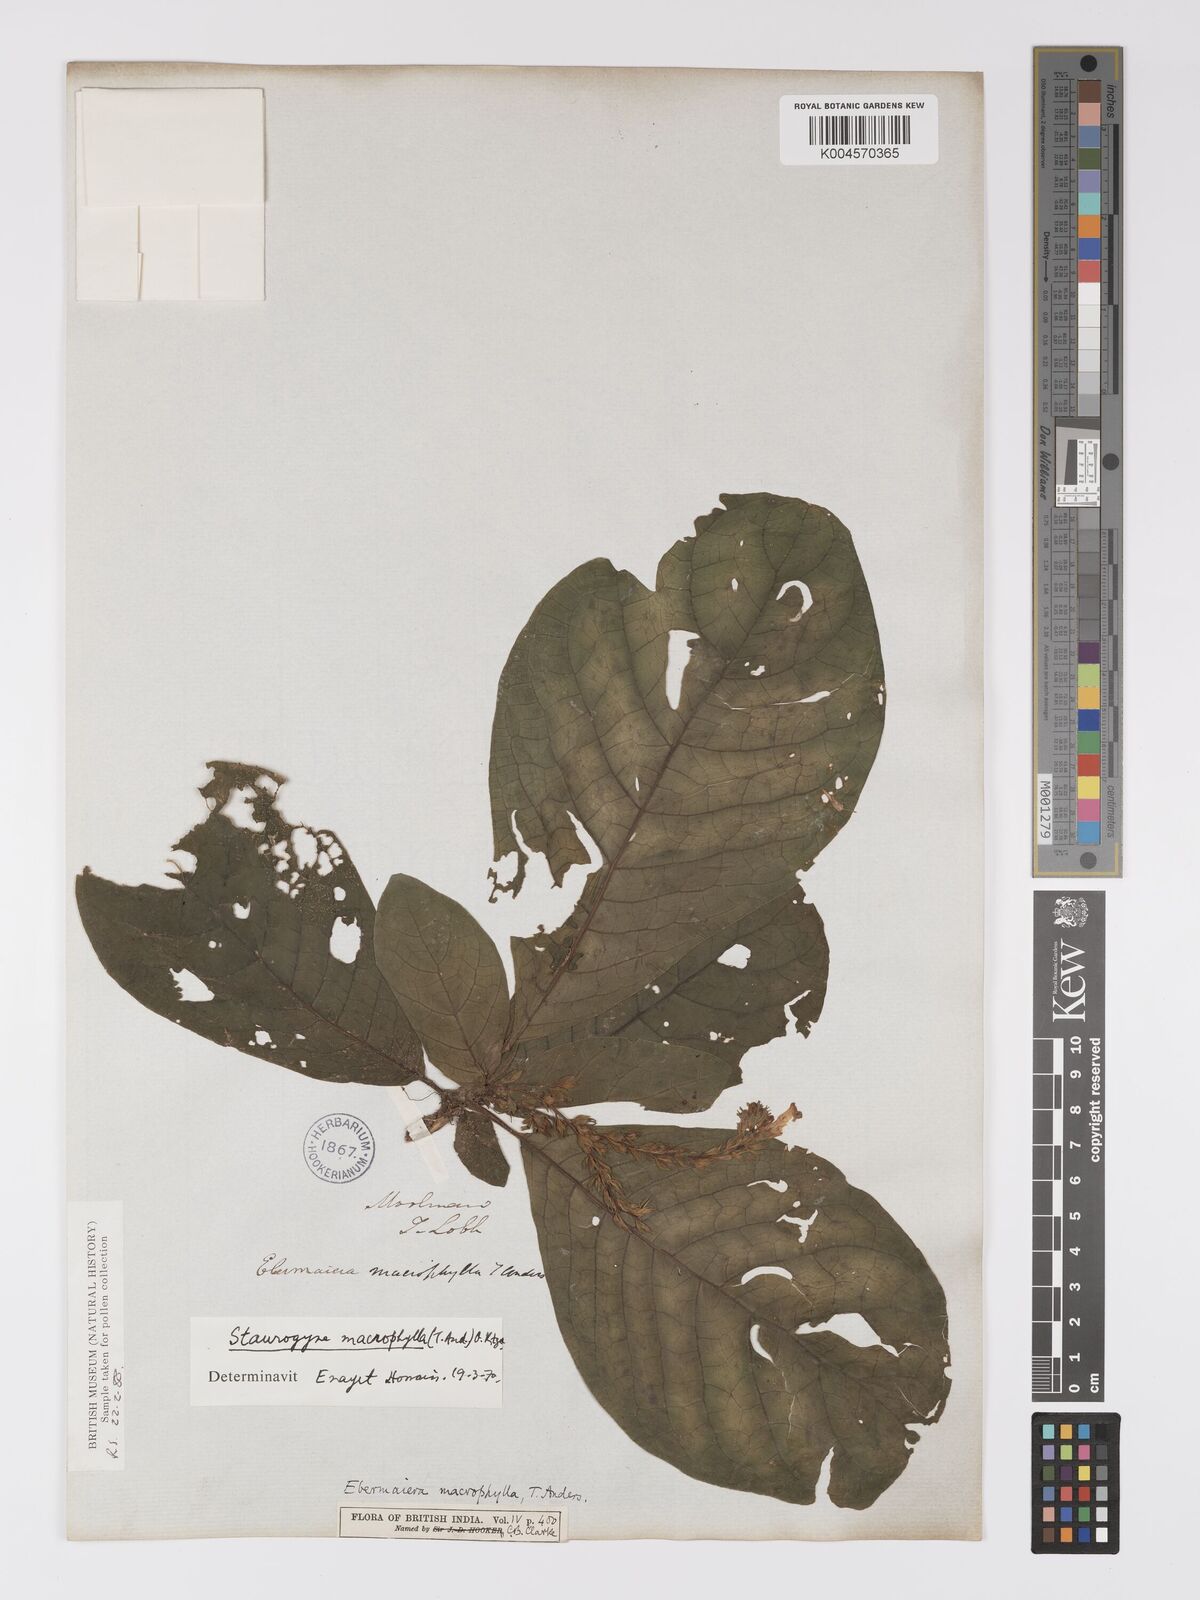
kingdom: Plantae
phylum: Tracheophyta
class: Magnoliopsida
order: Lamiales
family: Acanthaceae
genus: Staurogyne
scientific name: Staurogyne macrophylla
